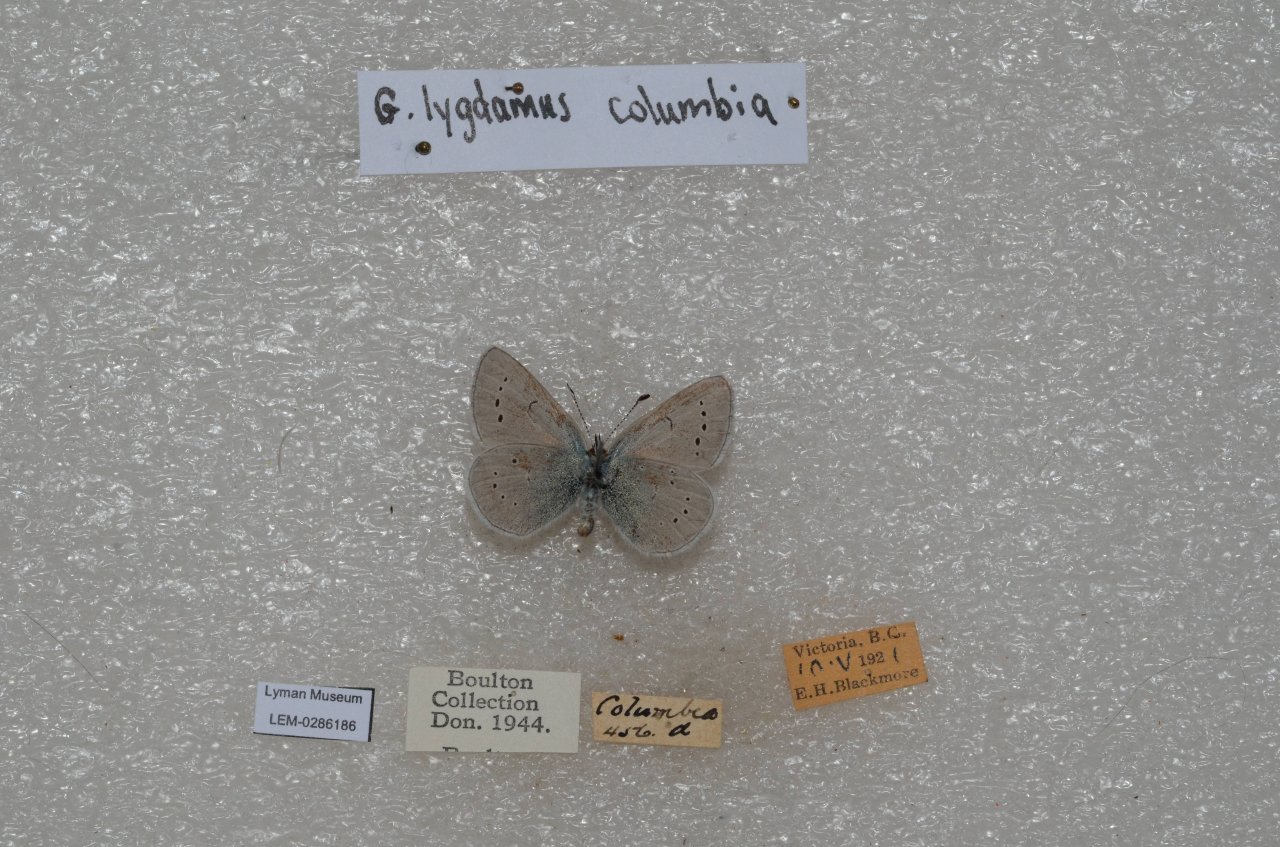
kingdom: Animalia
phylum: Arthropoda
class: Insecta
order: Lepidoptera
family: Lycaenidae
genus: Glaucopsyche
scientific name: Glaucopsyche lygdamus
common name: Silvery Blue
